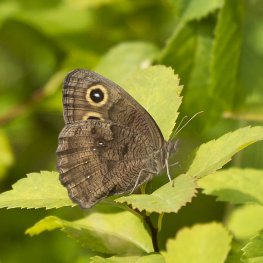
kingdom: Animalia
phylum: Arthropoda
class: Insecta
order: Lepidoptera
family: Nymphalidae
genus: Cercyonis
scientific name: Cercyonis pegala
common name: Common Wood-Nymph
